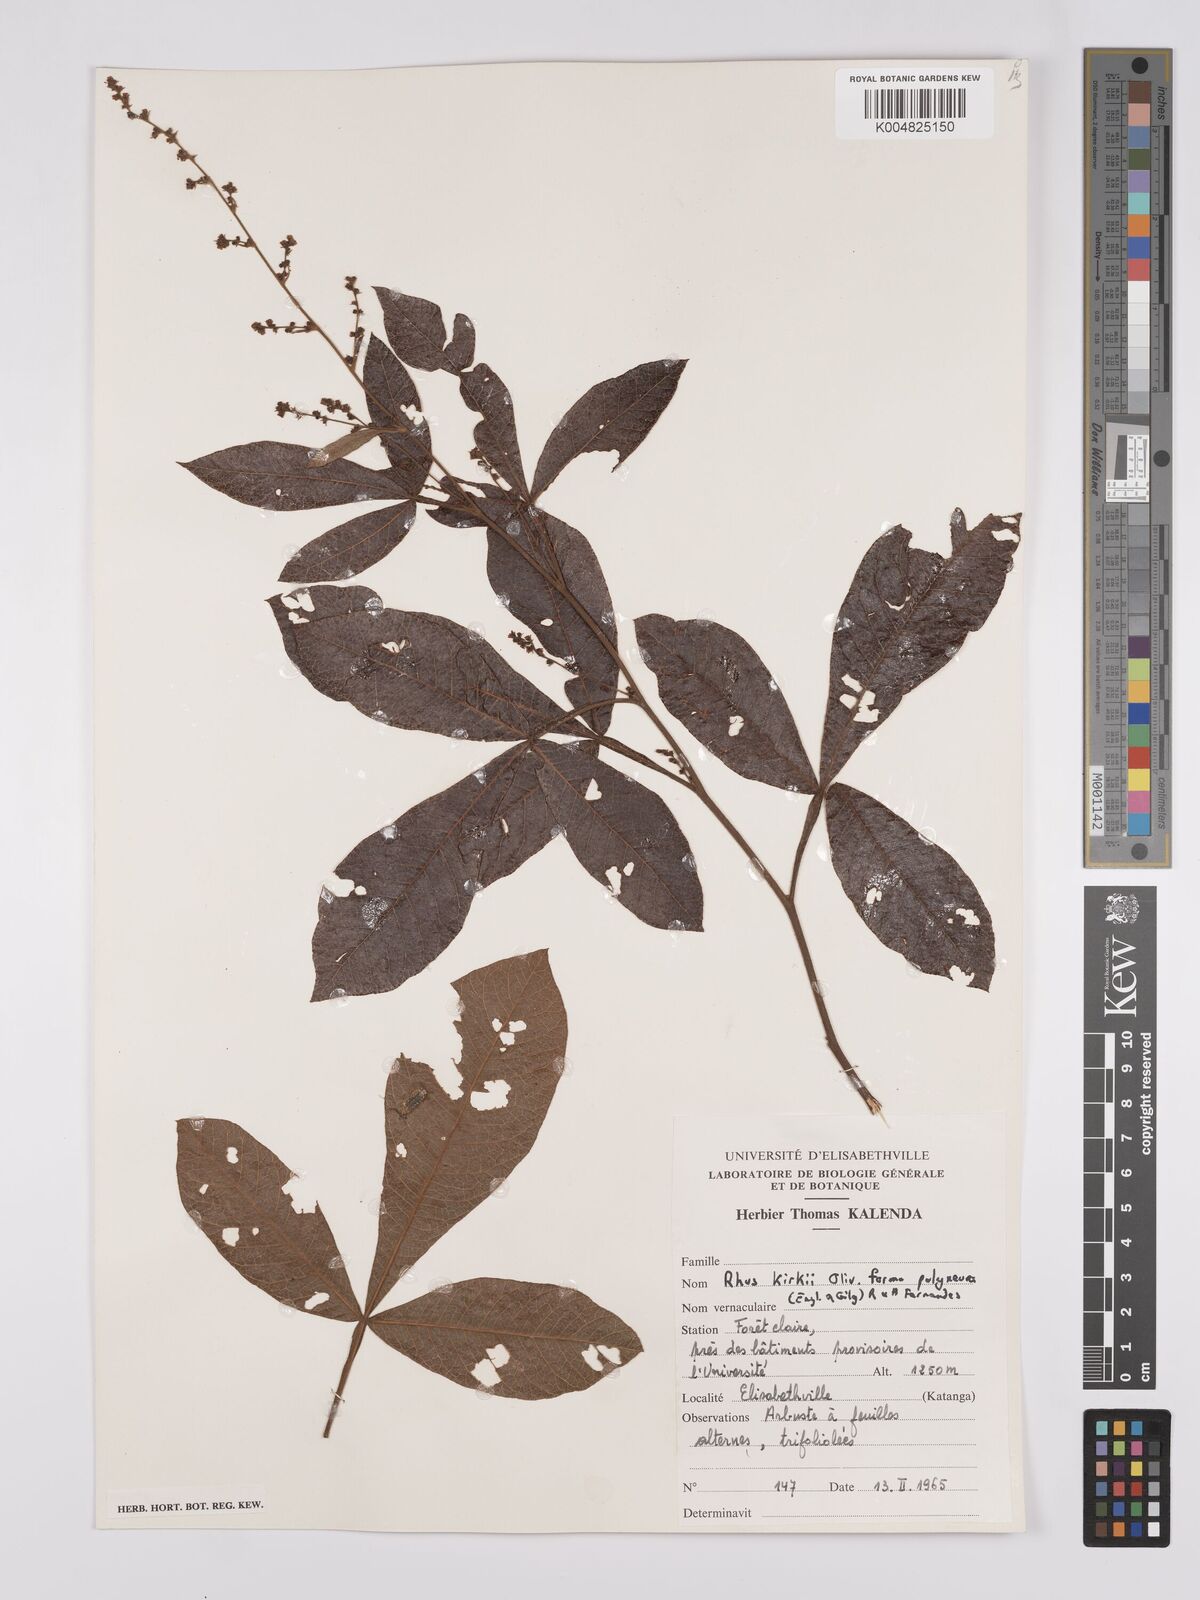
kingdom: Plantae
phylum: Tracheophyta
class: Magnoliopsida
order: Sapindales
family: Anacardiaceae
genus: Searsia
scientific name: Searsia kirkii
